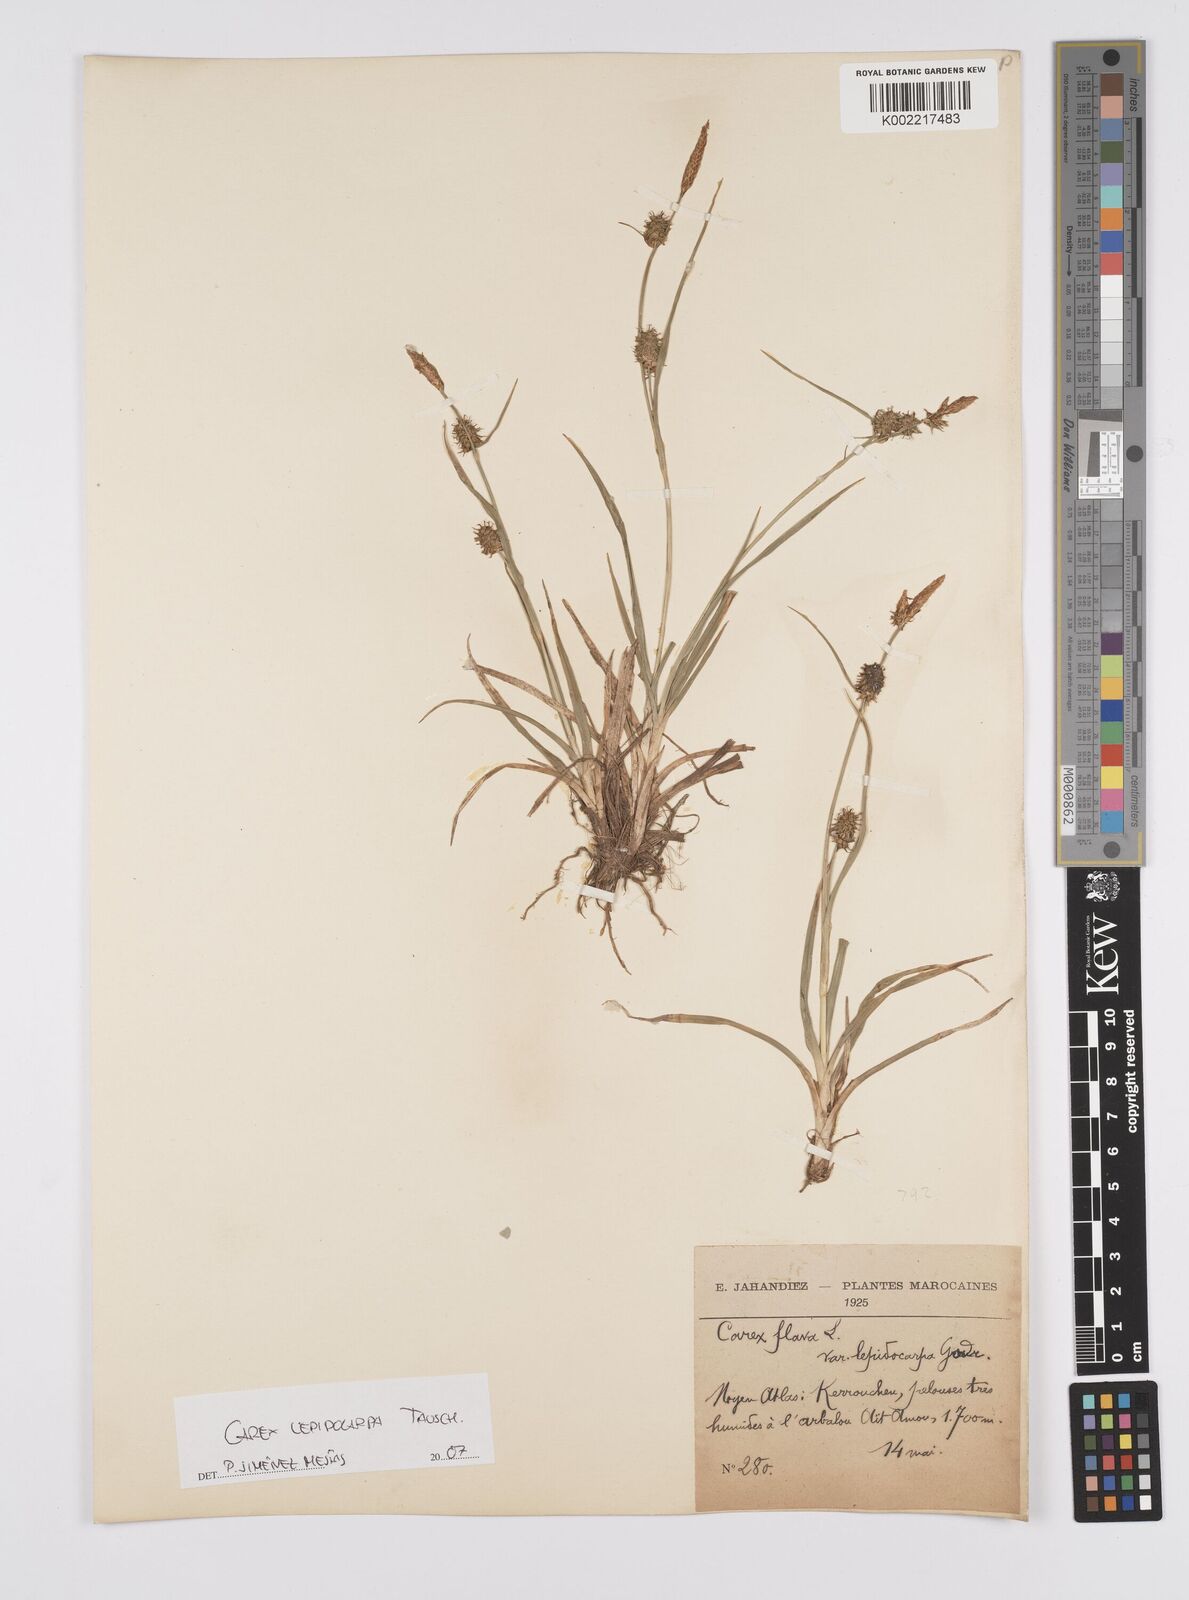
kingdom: Plantae
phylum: Tracheophyta
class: Liliopsida
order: Poales
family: Cyperaceae
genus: Carex
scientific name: Carex demissa
